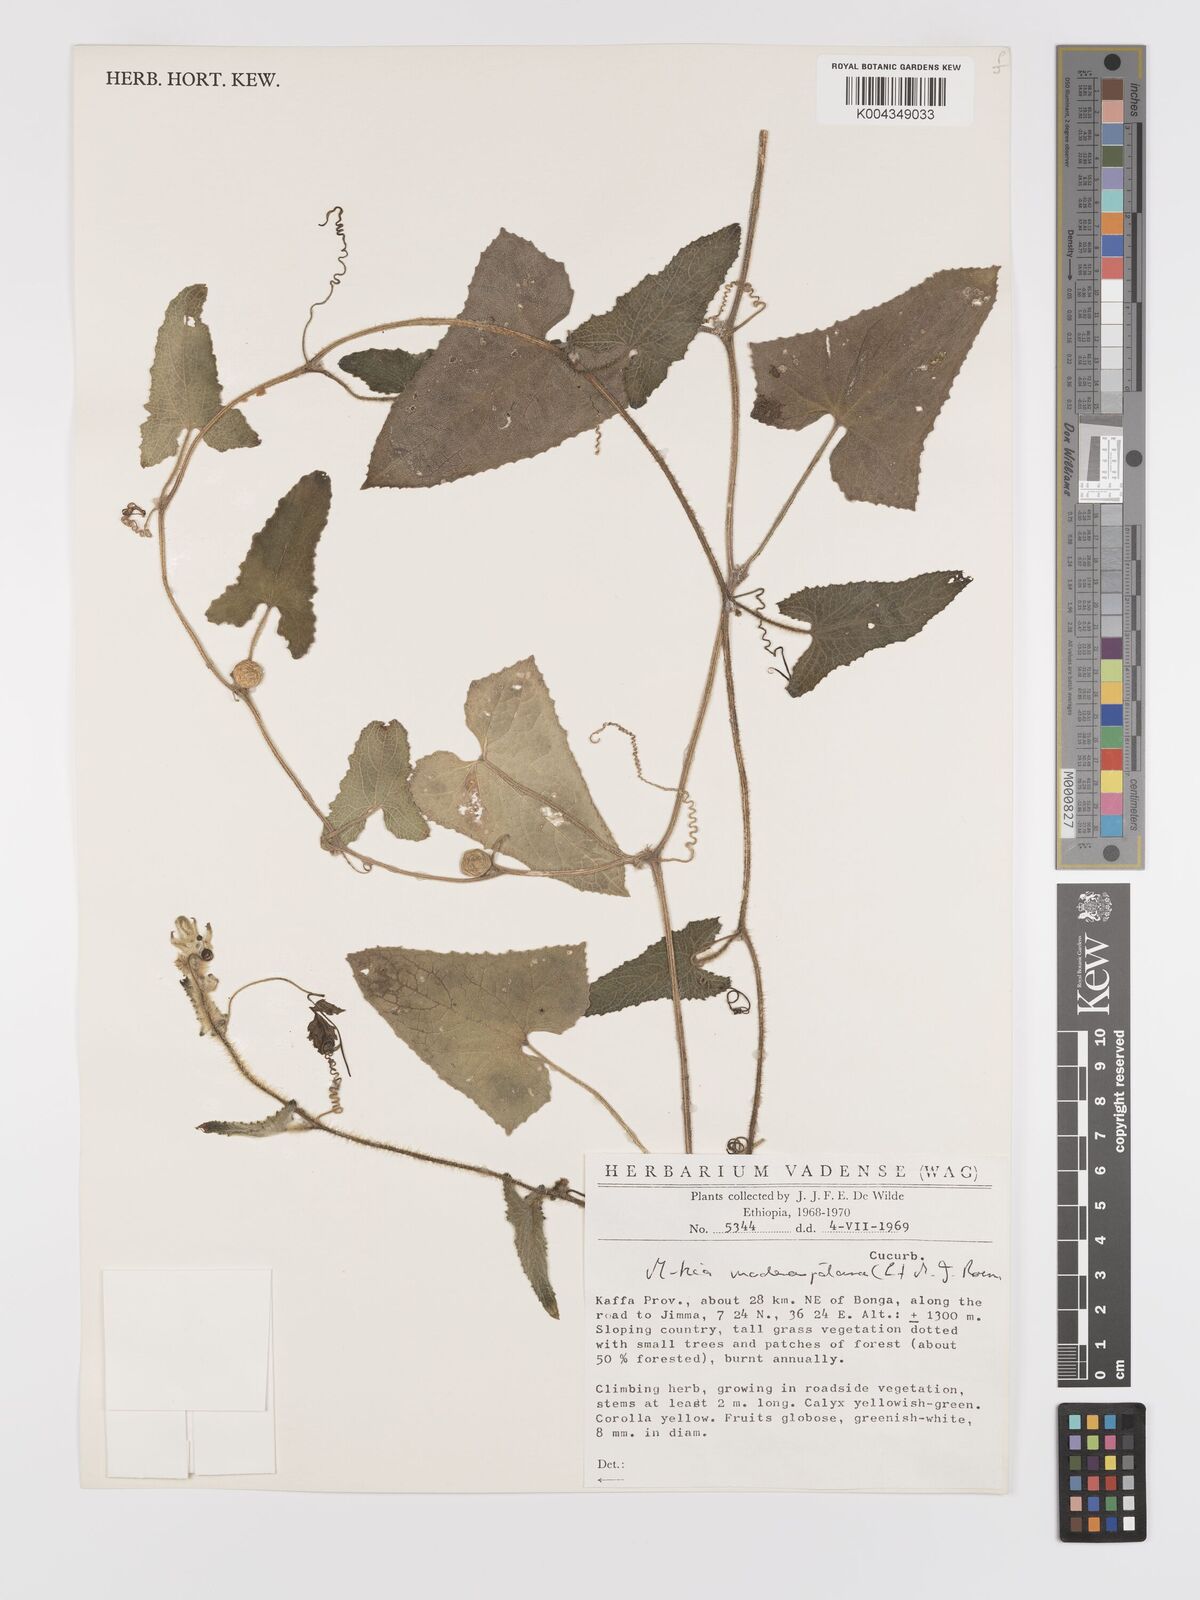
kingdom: Plantae
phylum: Tracheophyta
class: Magnoliopsida
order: Cucurbitales
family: Cucurbitaceae
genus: Cucumis
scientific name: Cucumis maderaspatanus
